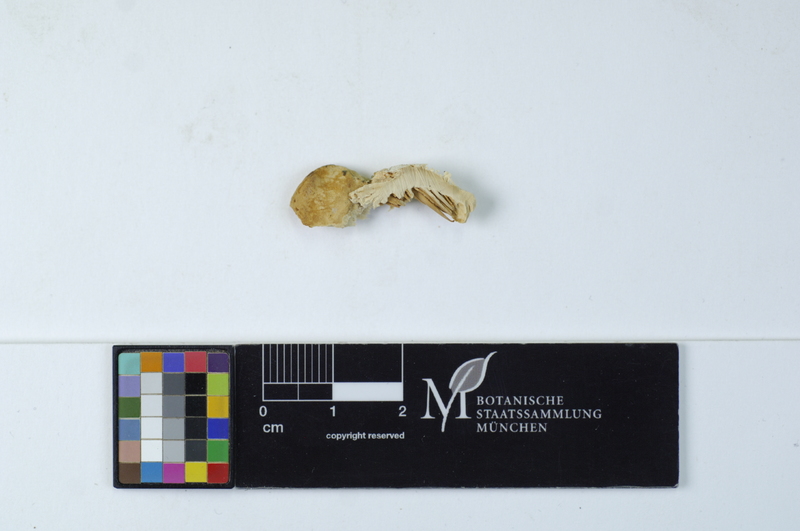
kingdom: Plantae
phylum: Tracheophyta
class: Magnoliopsida
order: Fagales
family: Juglandaceae
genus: Juglans
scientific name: Juglans
